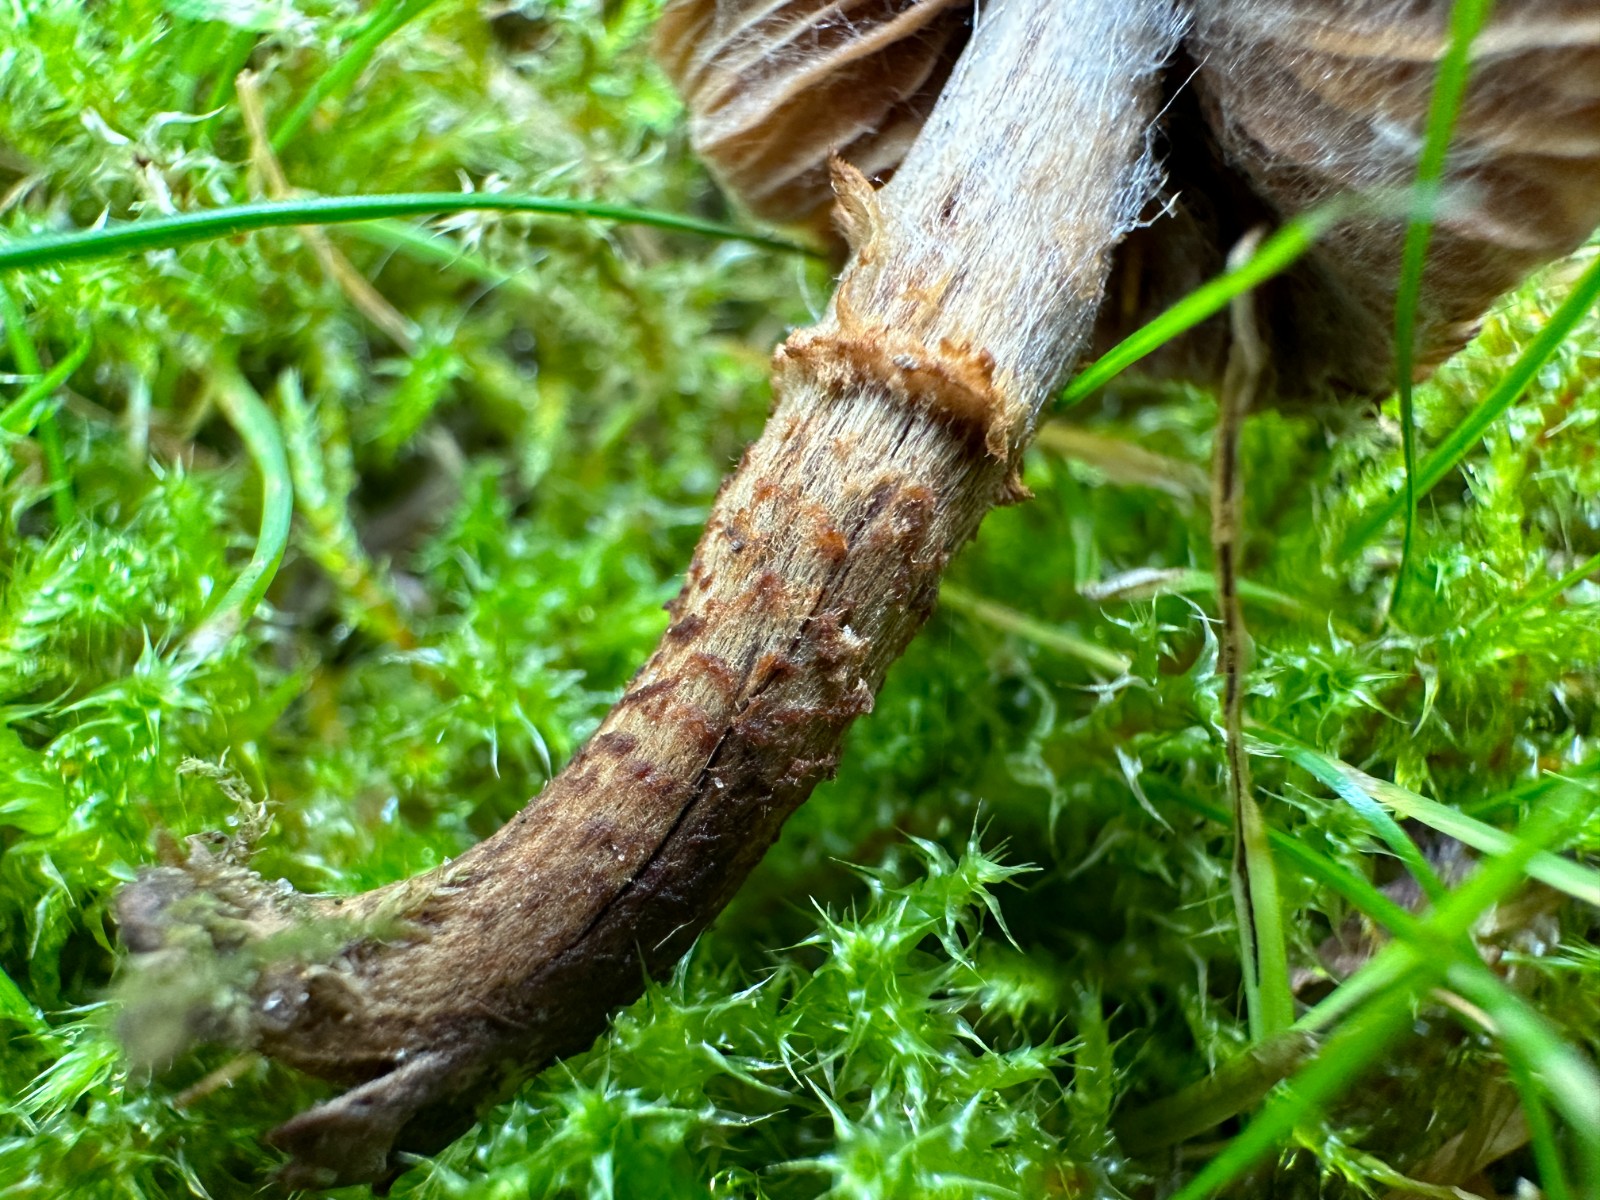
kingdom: Fungi
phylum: Basidiomycota
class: Agaricomycetes
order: Agaricales
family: Cortinariaceae
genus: Cortinarius
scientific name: Cortinarius quercoconicus
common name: agernskål-slørhat
